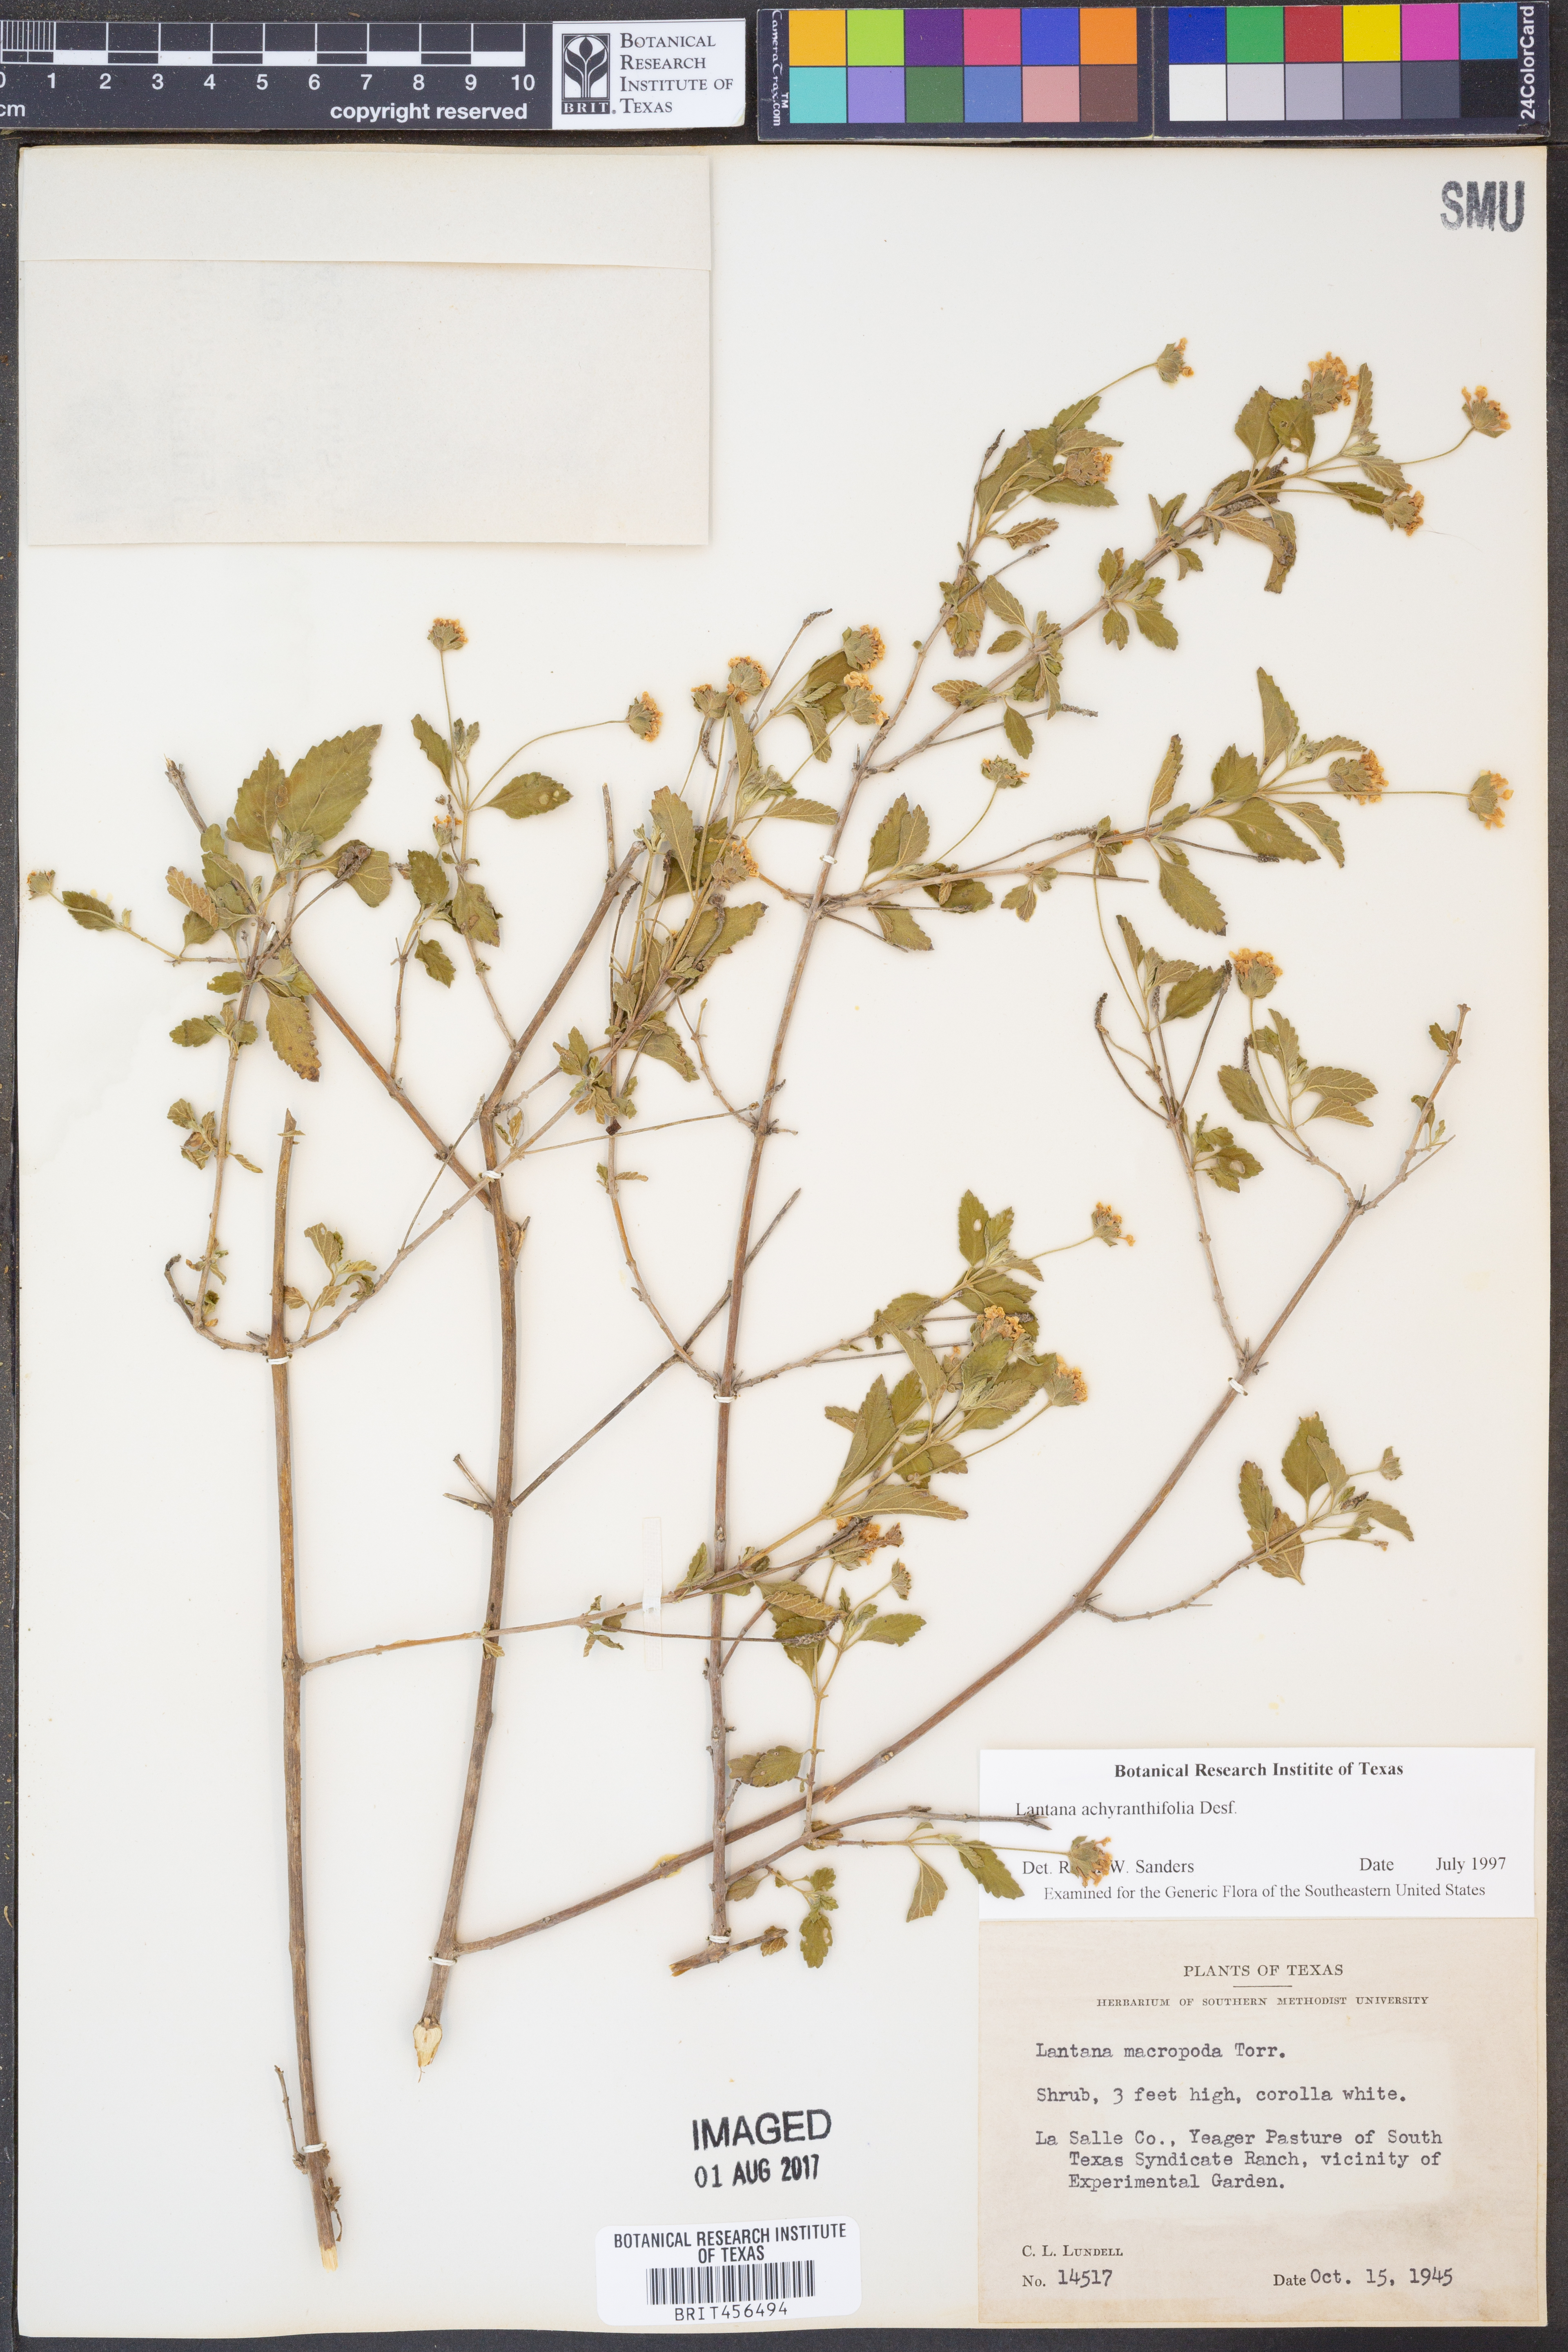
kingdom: Plantae
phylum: Tracheophyta
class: Magnoliopsida
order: Lamiales
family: Verbenaceae
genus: Lantana
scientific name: Lantana achyranthifolia
